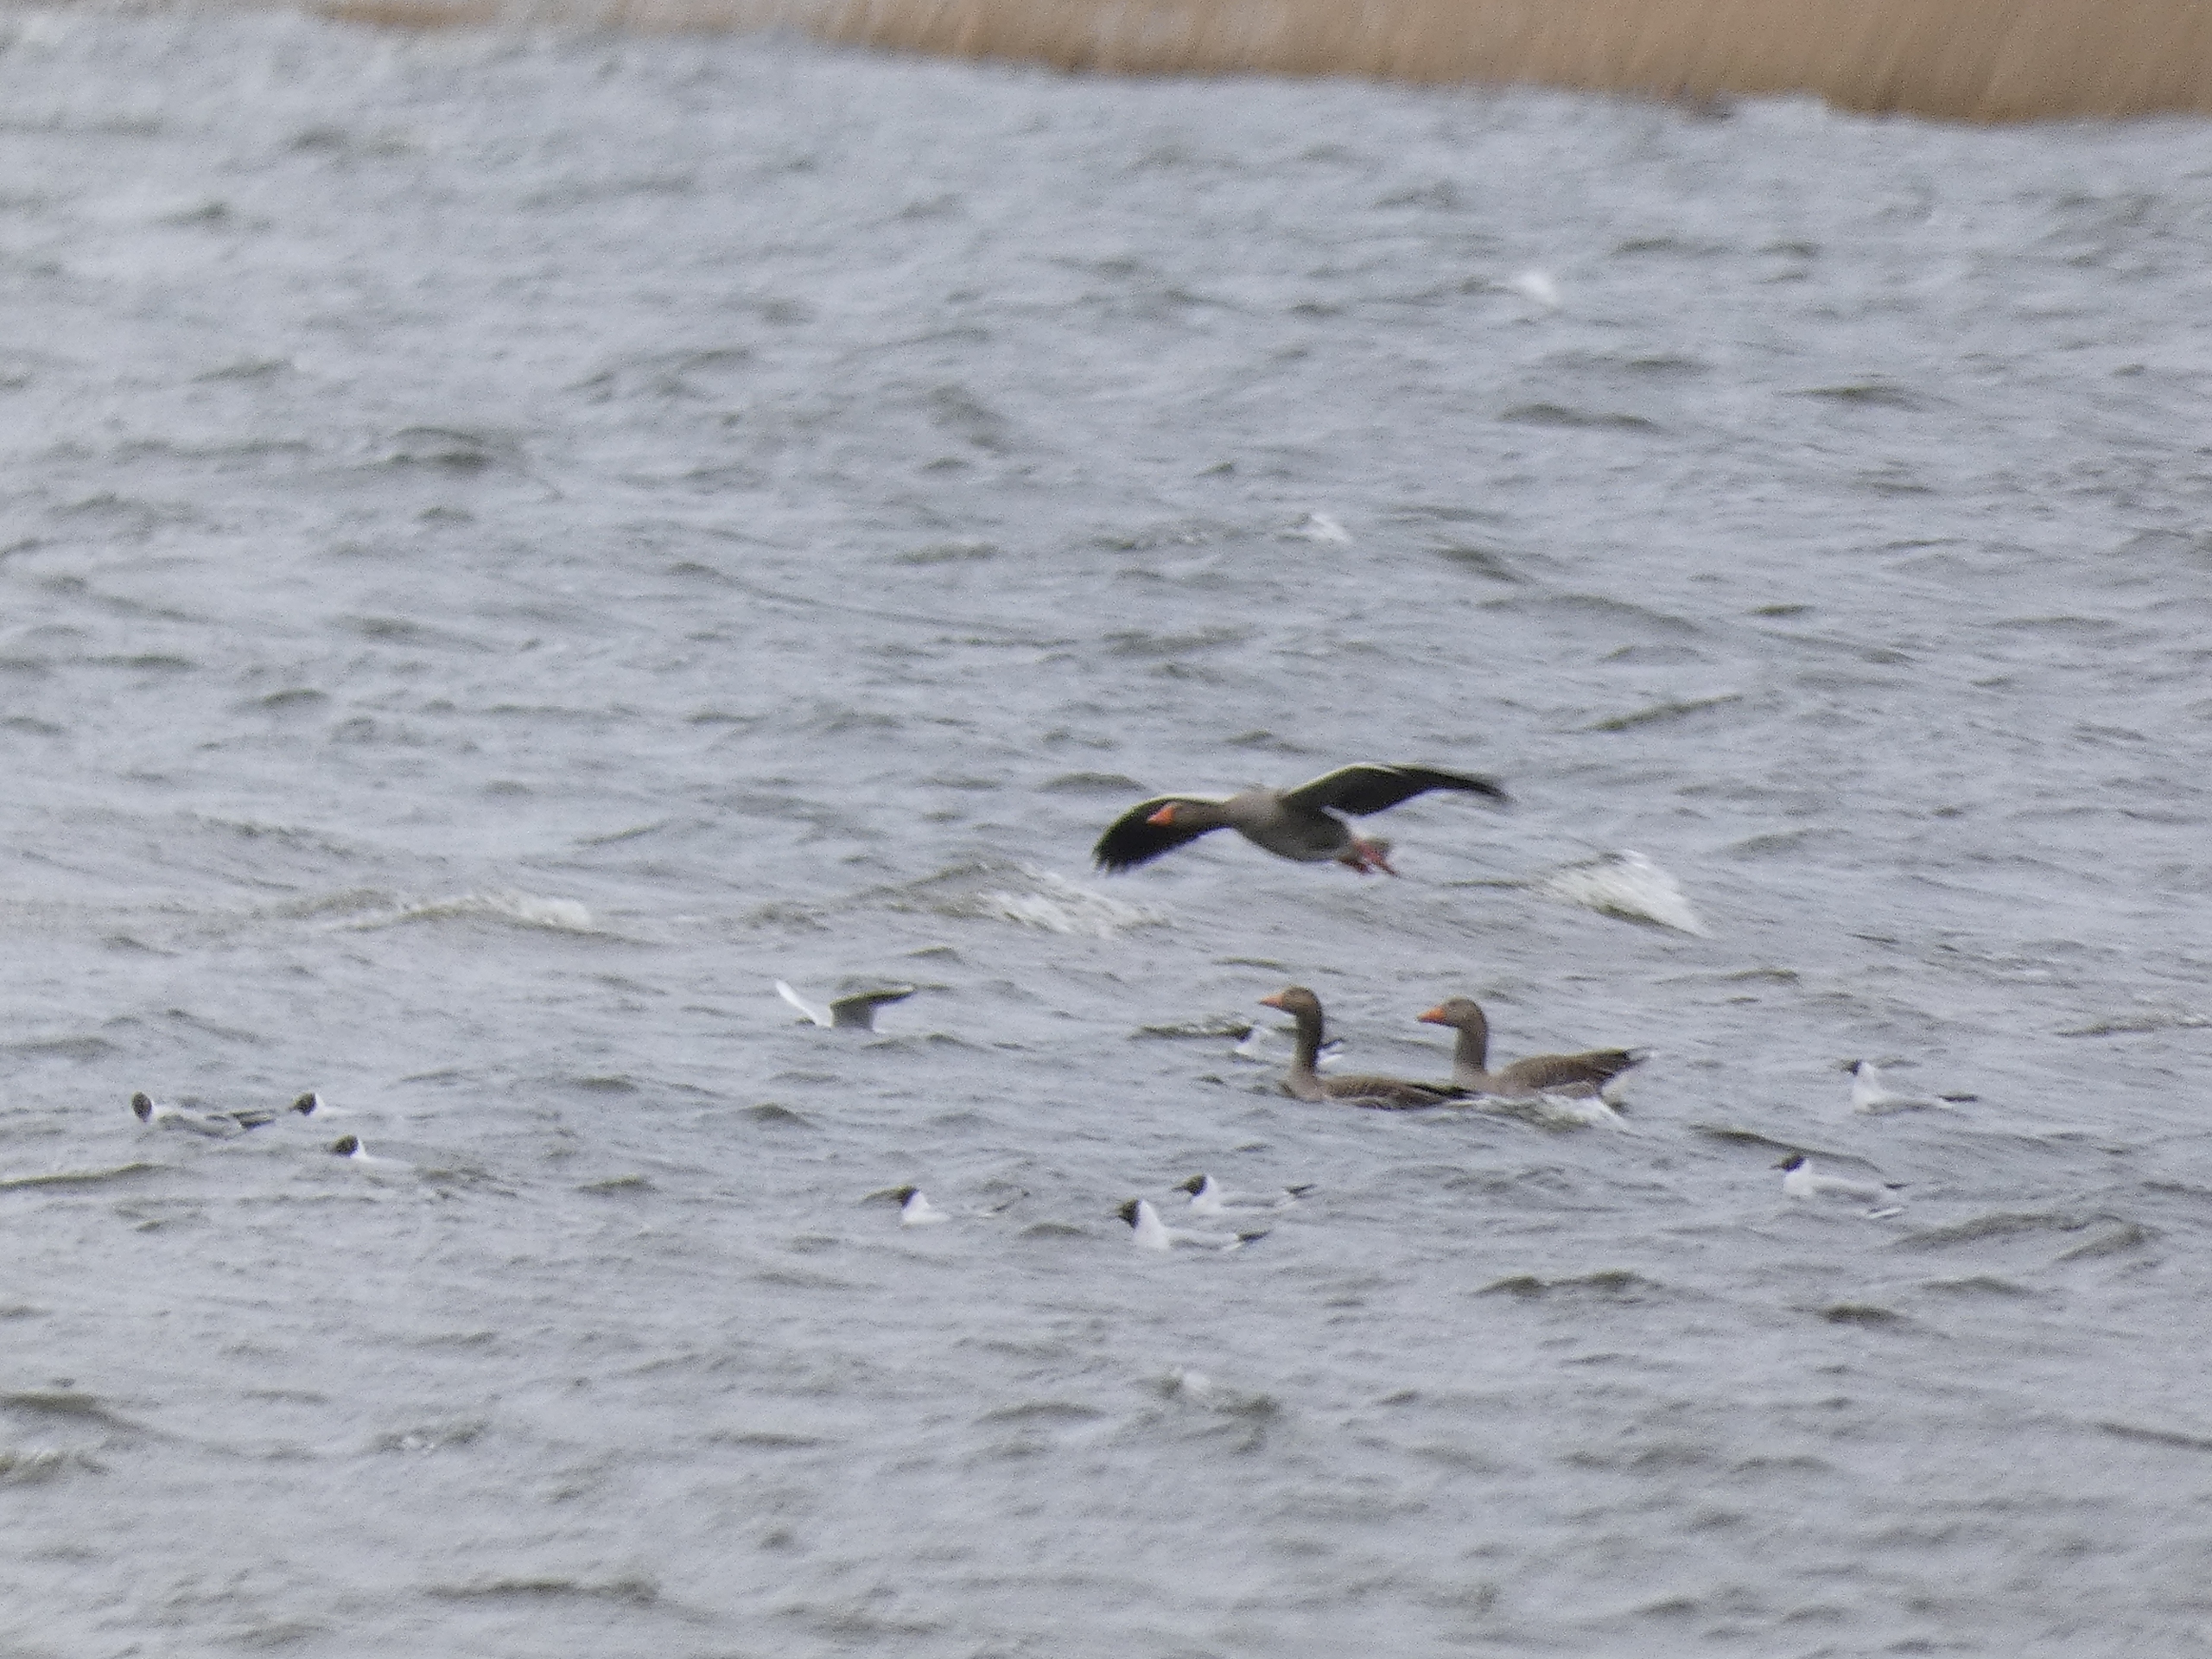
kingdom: Animalia
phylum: Chordata
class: Aves
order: Anseriformes
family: Anatidae
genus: Anser
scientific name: Anser anser
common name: Grågås
